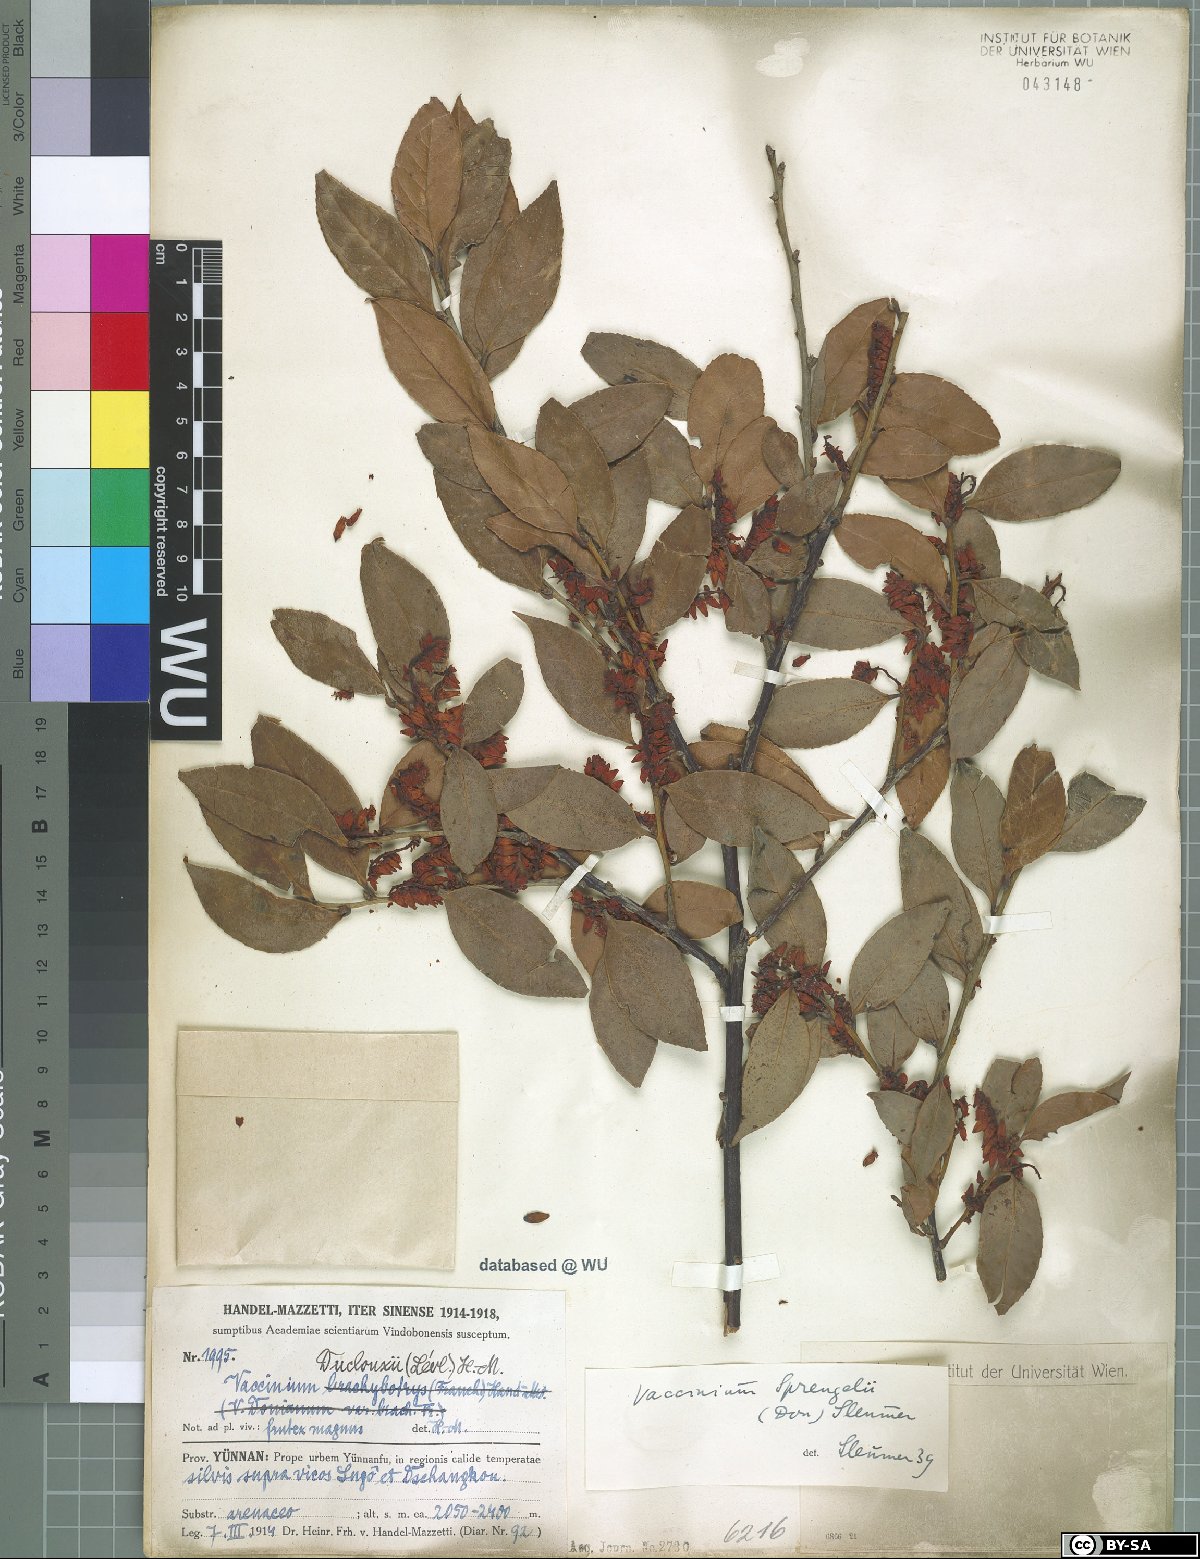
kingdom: Plantae
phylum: Tracheophyta
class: Magnoliopsida
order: Ericales
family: Ericaceae
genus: Vaccinium
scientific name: Vaccinium sprengelii
